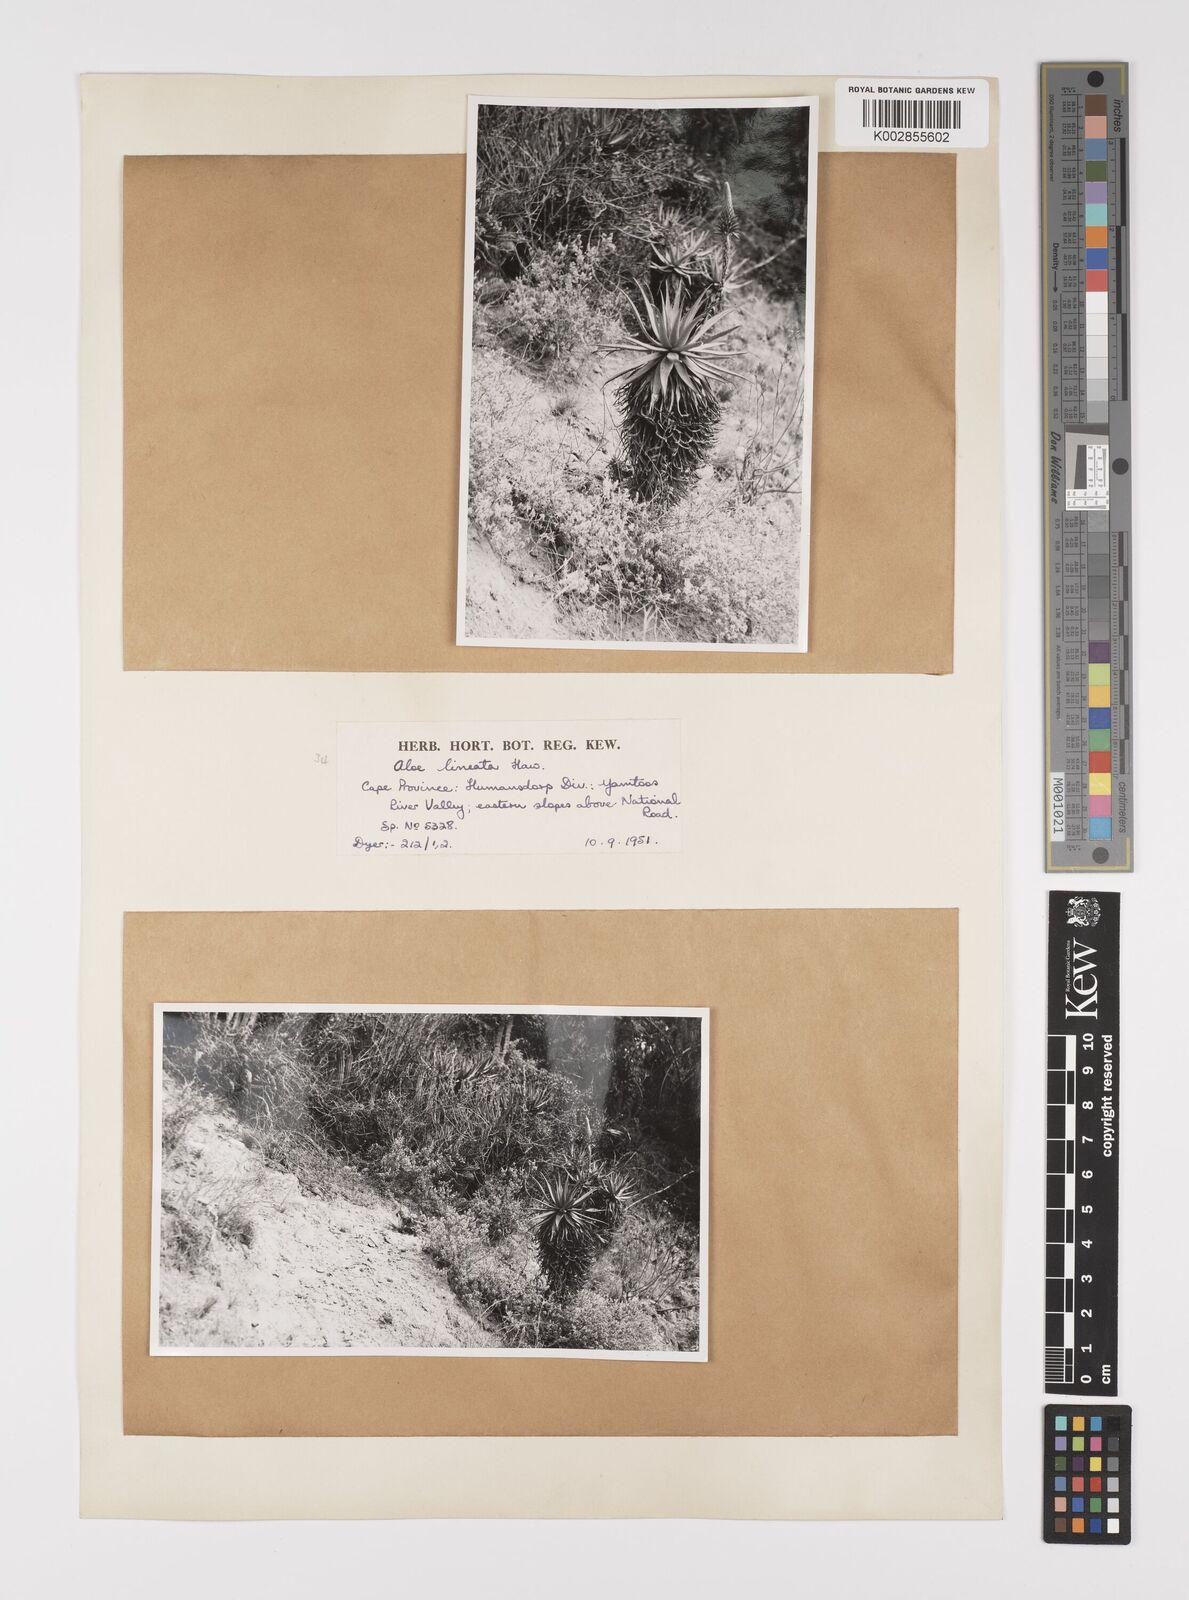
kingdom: Plantae
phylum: Tracheophyta
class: Liliopsida
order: Asparagales
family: Asphodelaceae
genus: Aloe
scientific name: Aloe lineata
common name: Lined red-spined aloe
